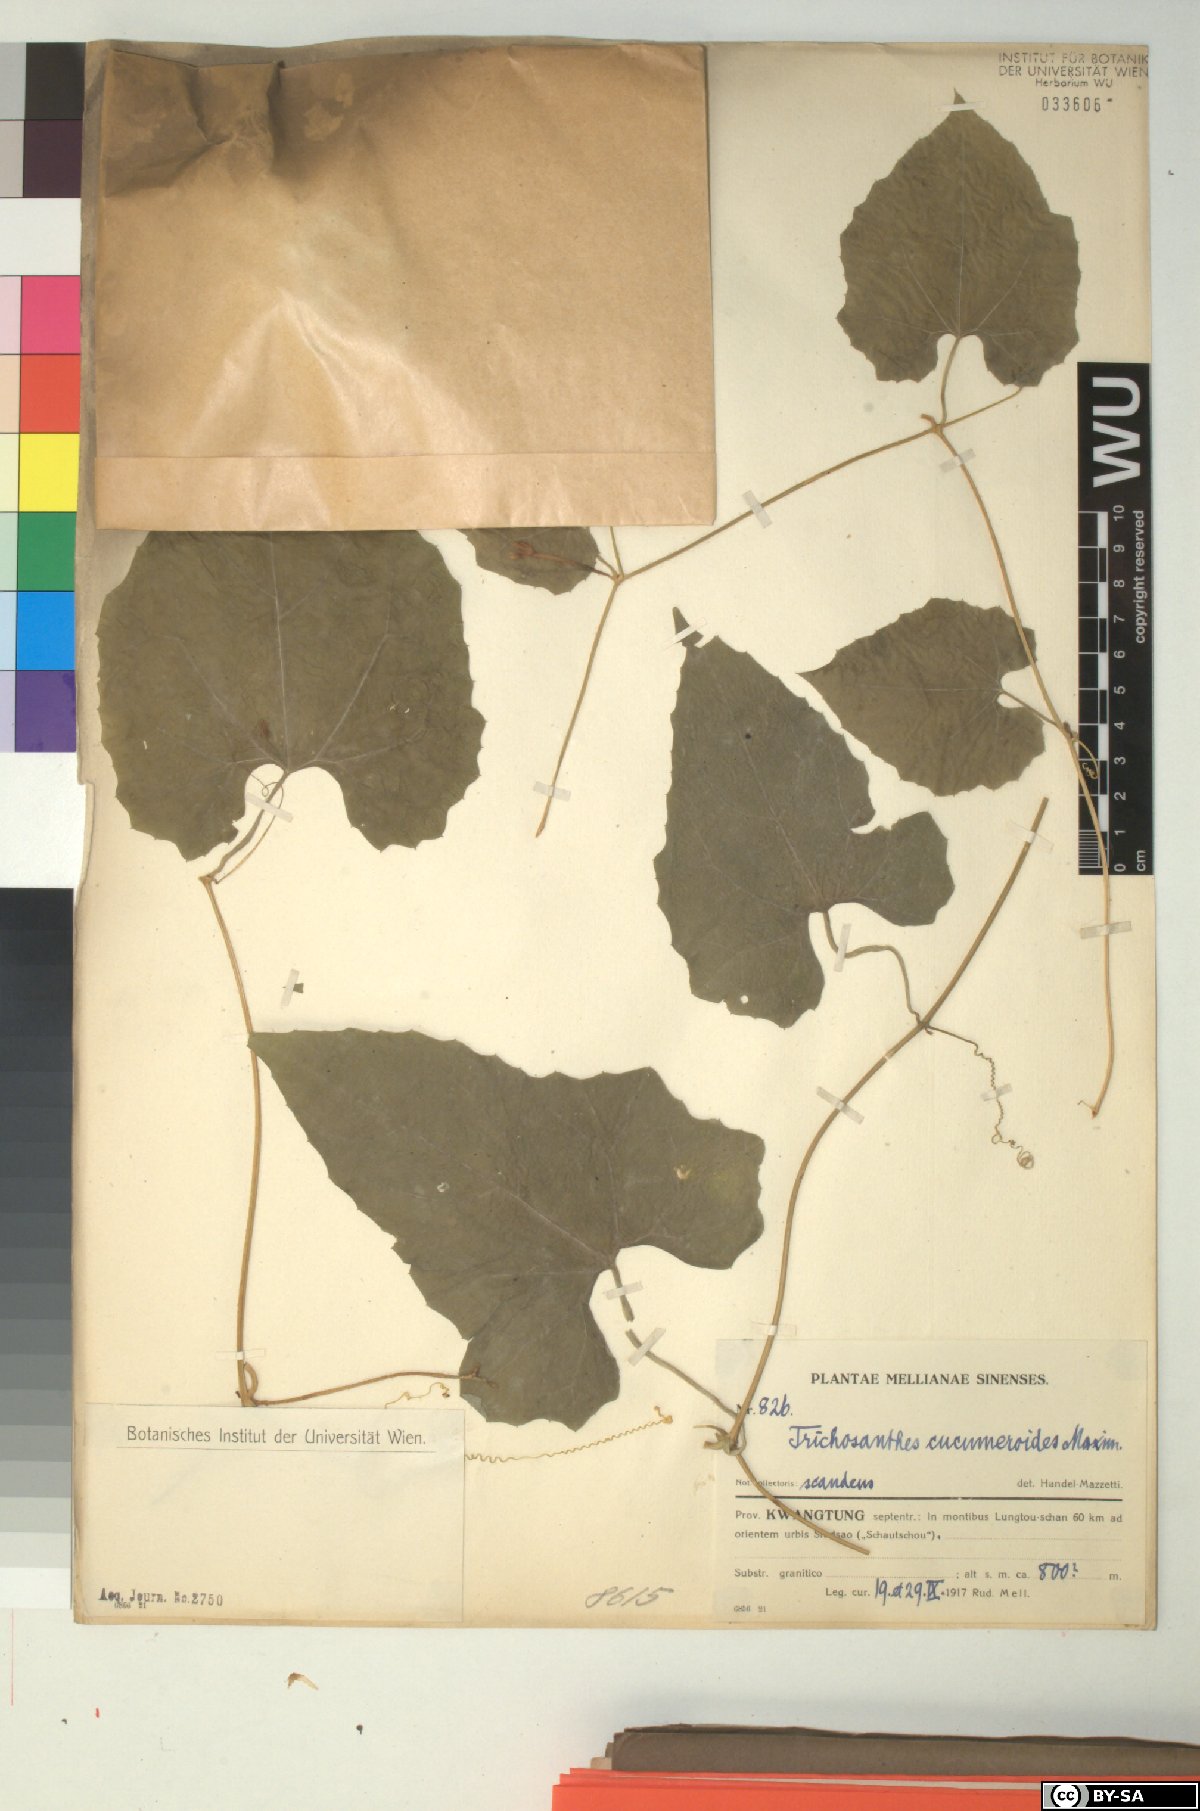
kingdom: Plantae
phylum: Tracheophyta
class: Magnoliopsida
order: Cucurbitales
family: Cucurbitaceae
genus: Trichosanthes
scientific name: Trichosanthes cucumeroides
